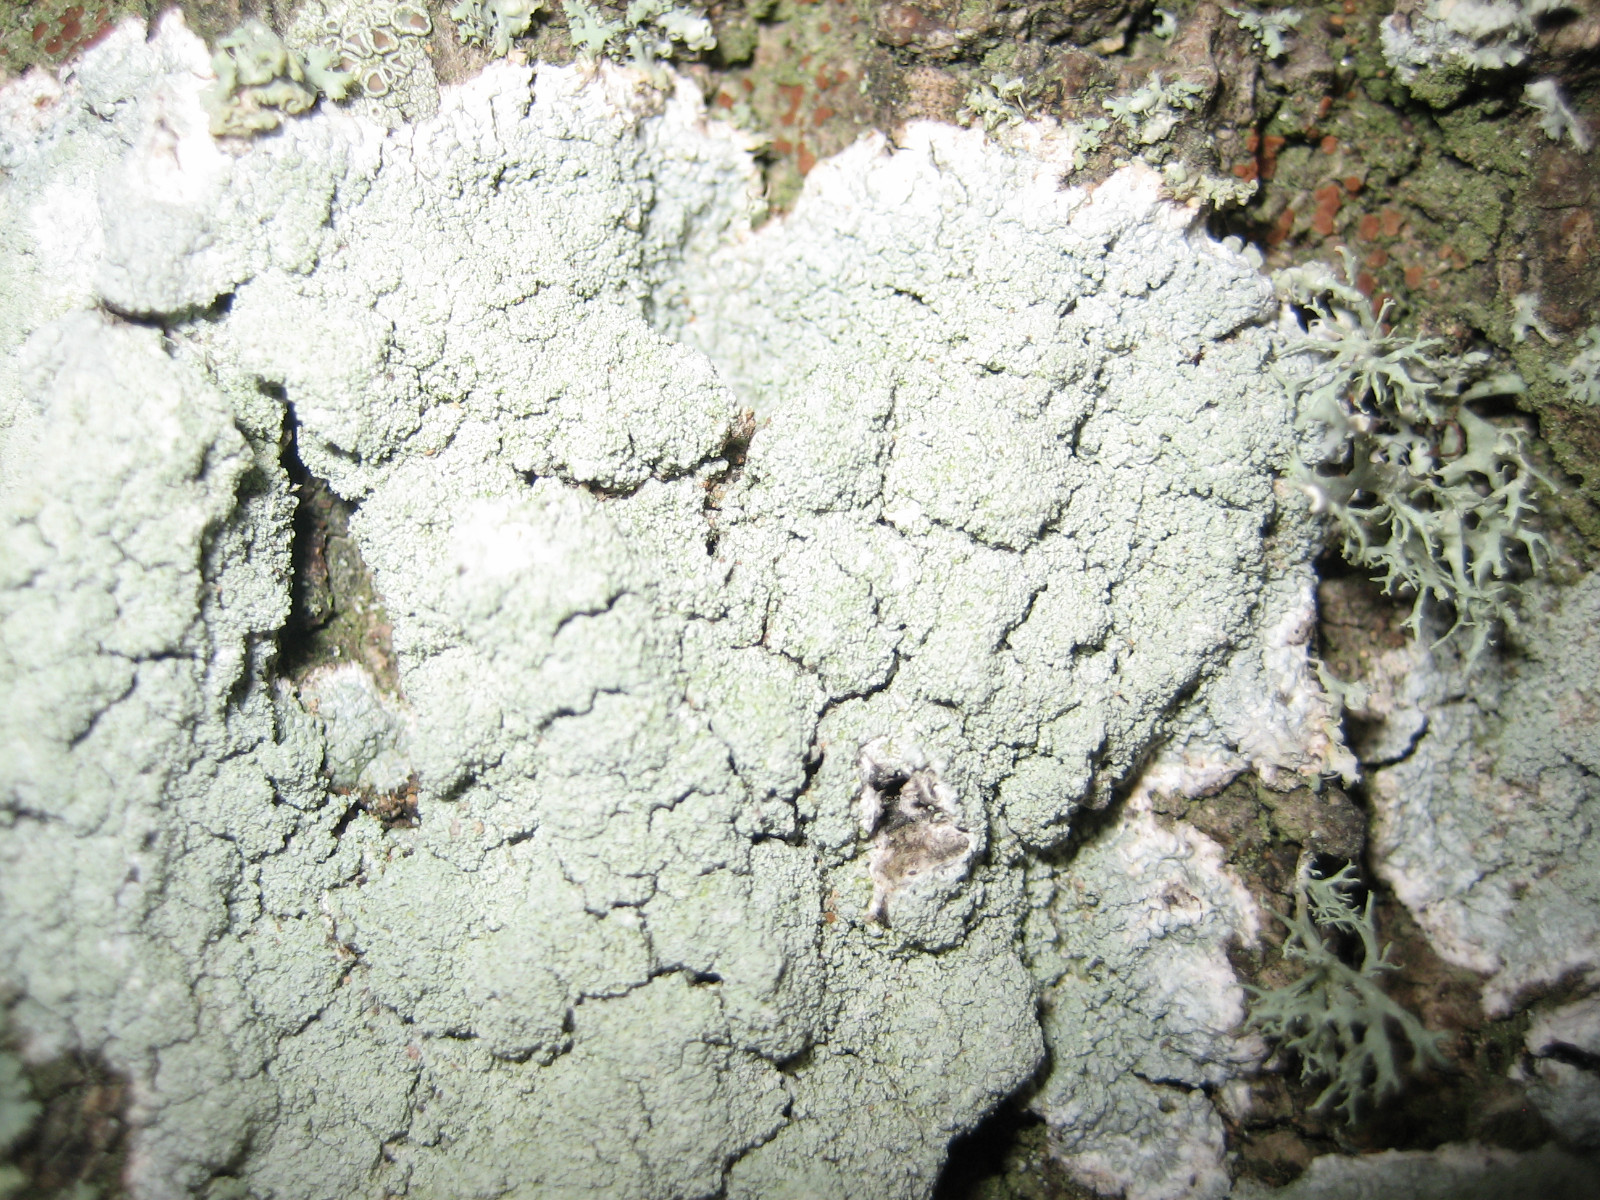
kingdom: Fungi
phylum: Ascomycota
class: Lecanoromycetes
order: Pertusariales
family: Ochrolechiaceae
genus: Ochrolechia
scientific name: Ochrolechia subviridis
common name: vorte-blegskivelav
